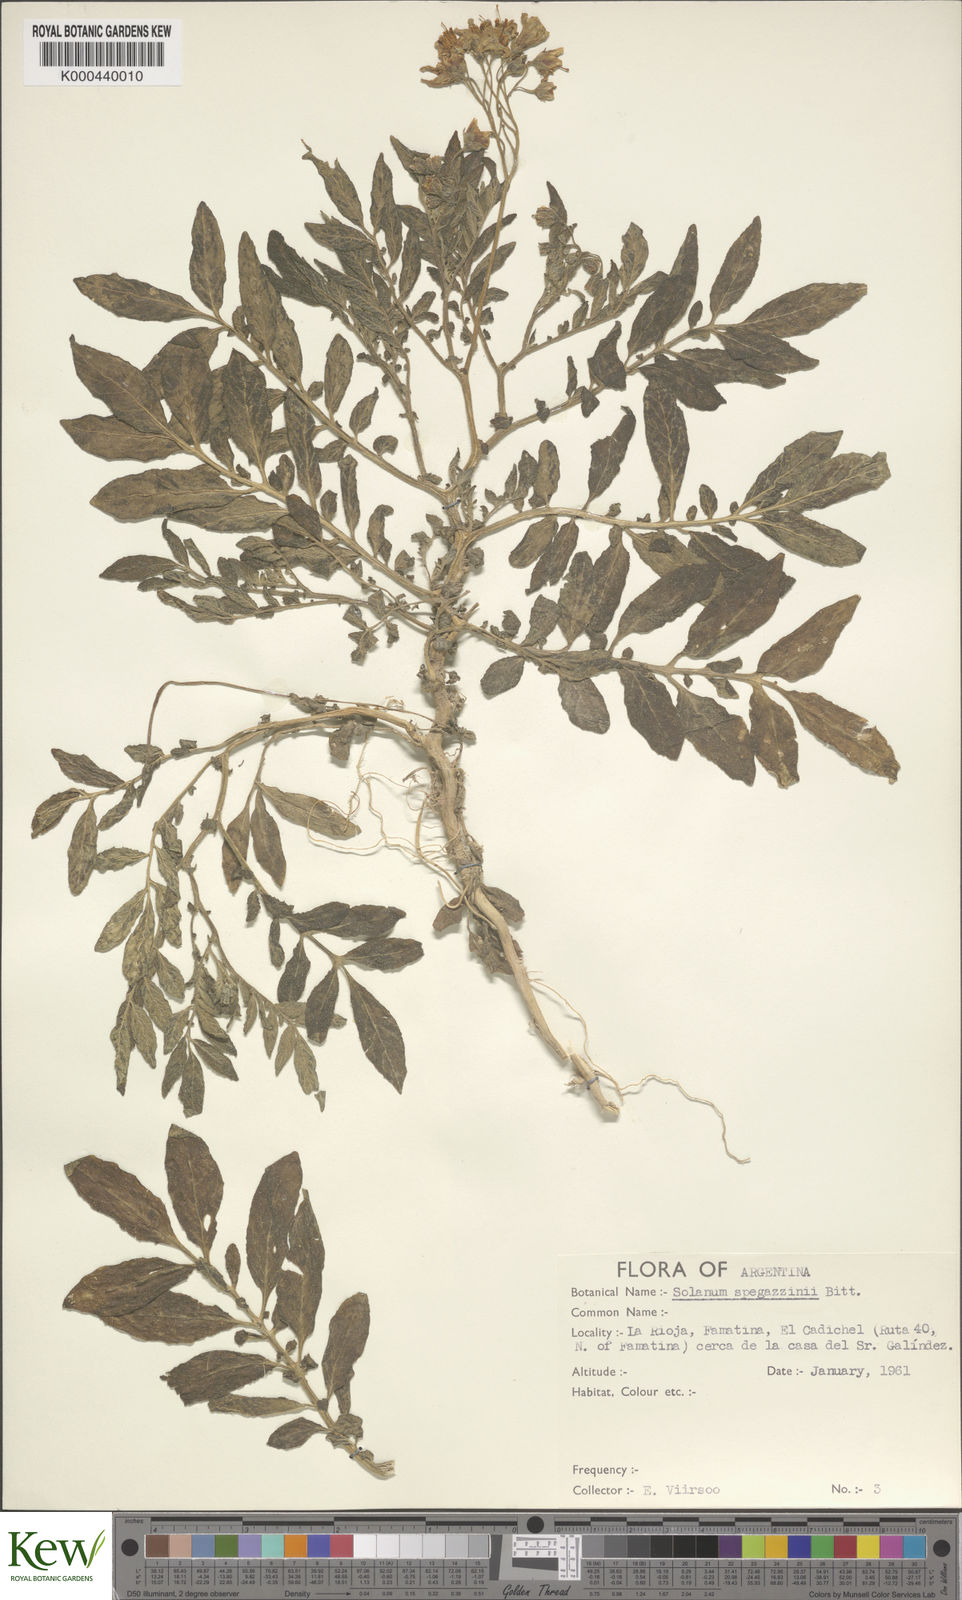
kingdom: Plantae
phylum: Tracheophyta
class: Magnoliopsida
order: Solanales
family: Solanaceae
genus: Solanum
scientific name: Solanum brevicaule
